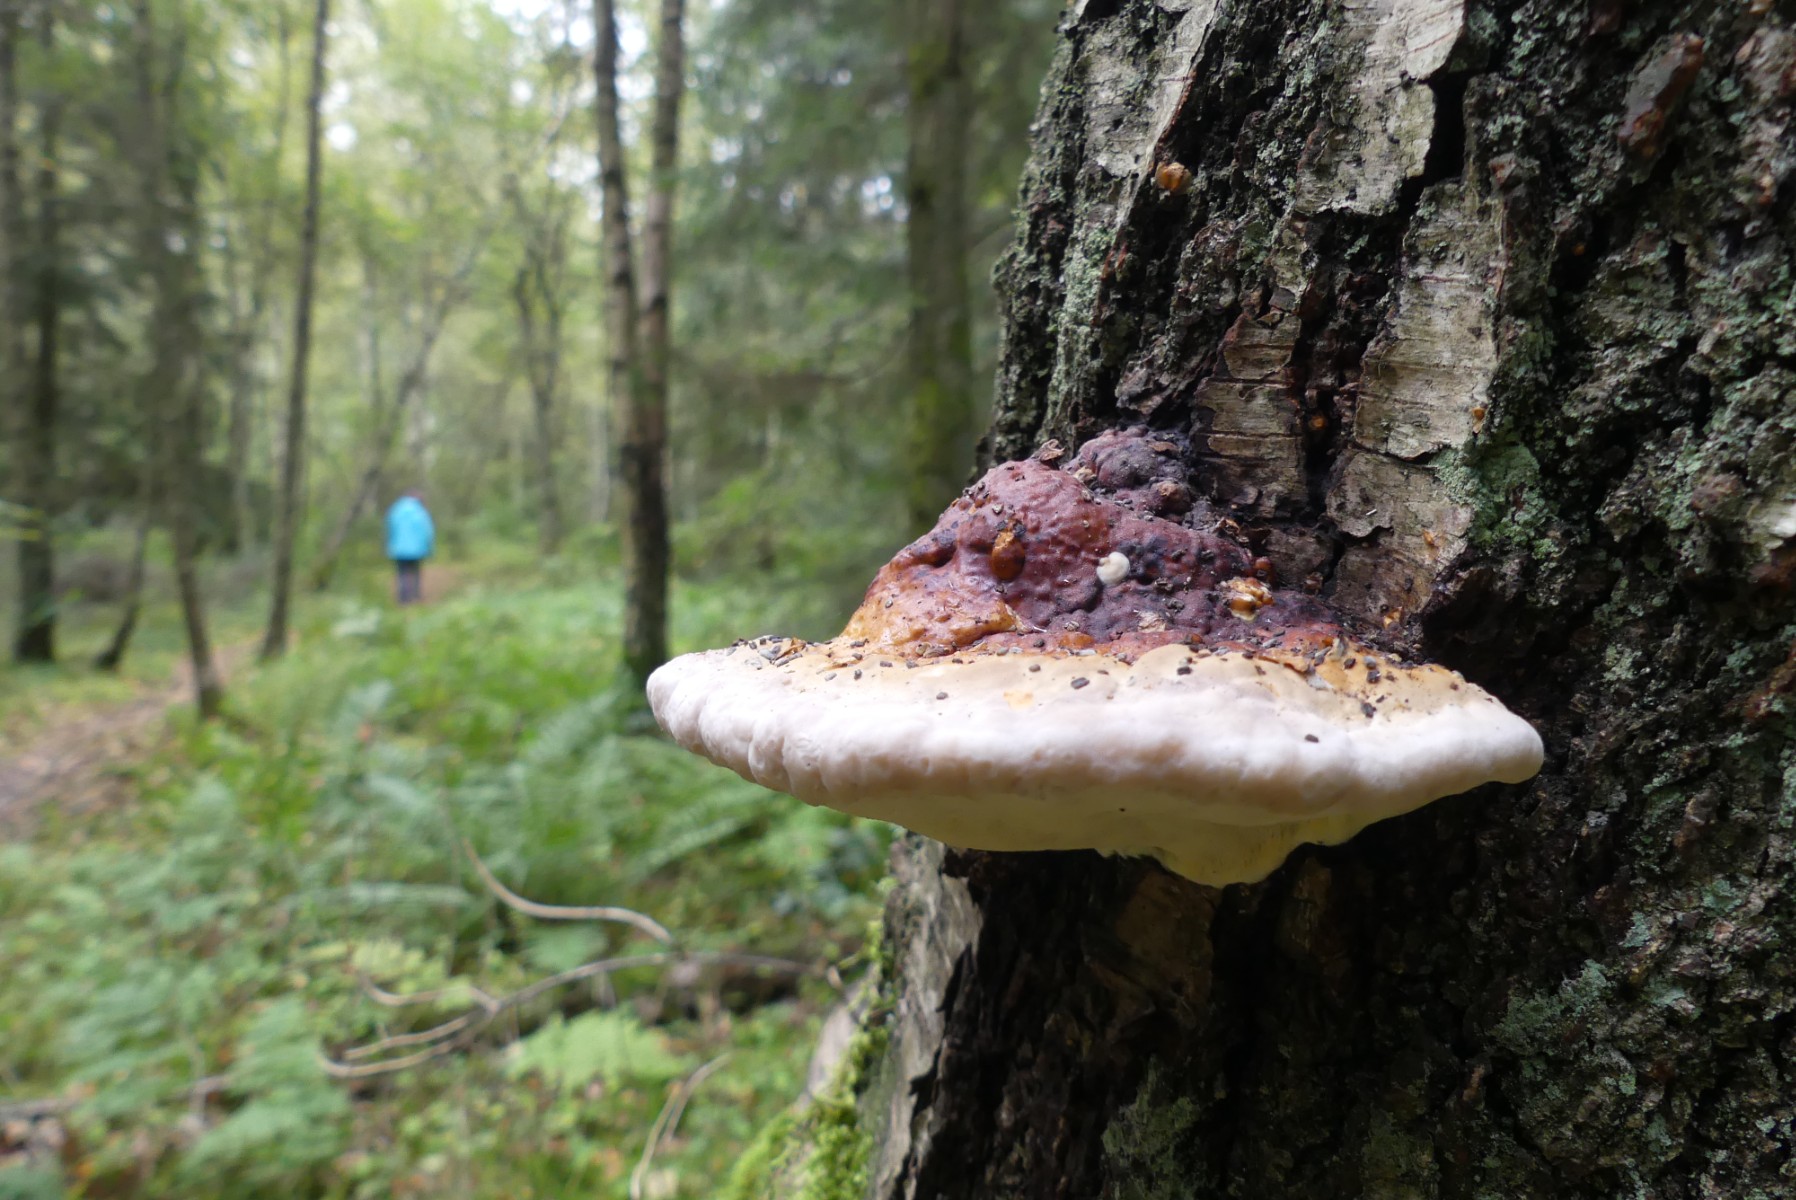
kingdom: Fungi
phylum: Basidiomycota
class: Agaricomycetes
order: Polyporales
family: Fomitopsidaceae
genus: Fomitopsis
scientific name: Fomitopsis pinicola
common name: randbæltet hovporesvamp
